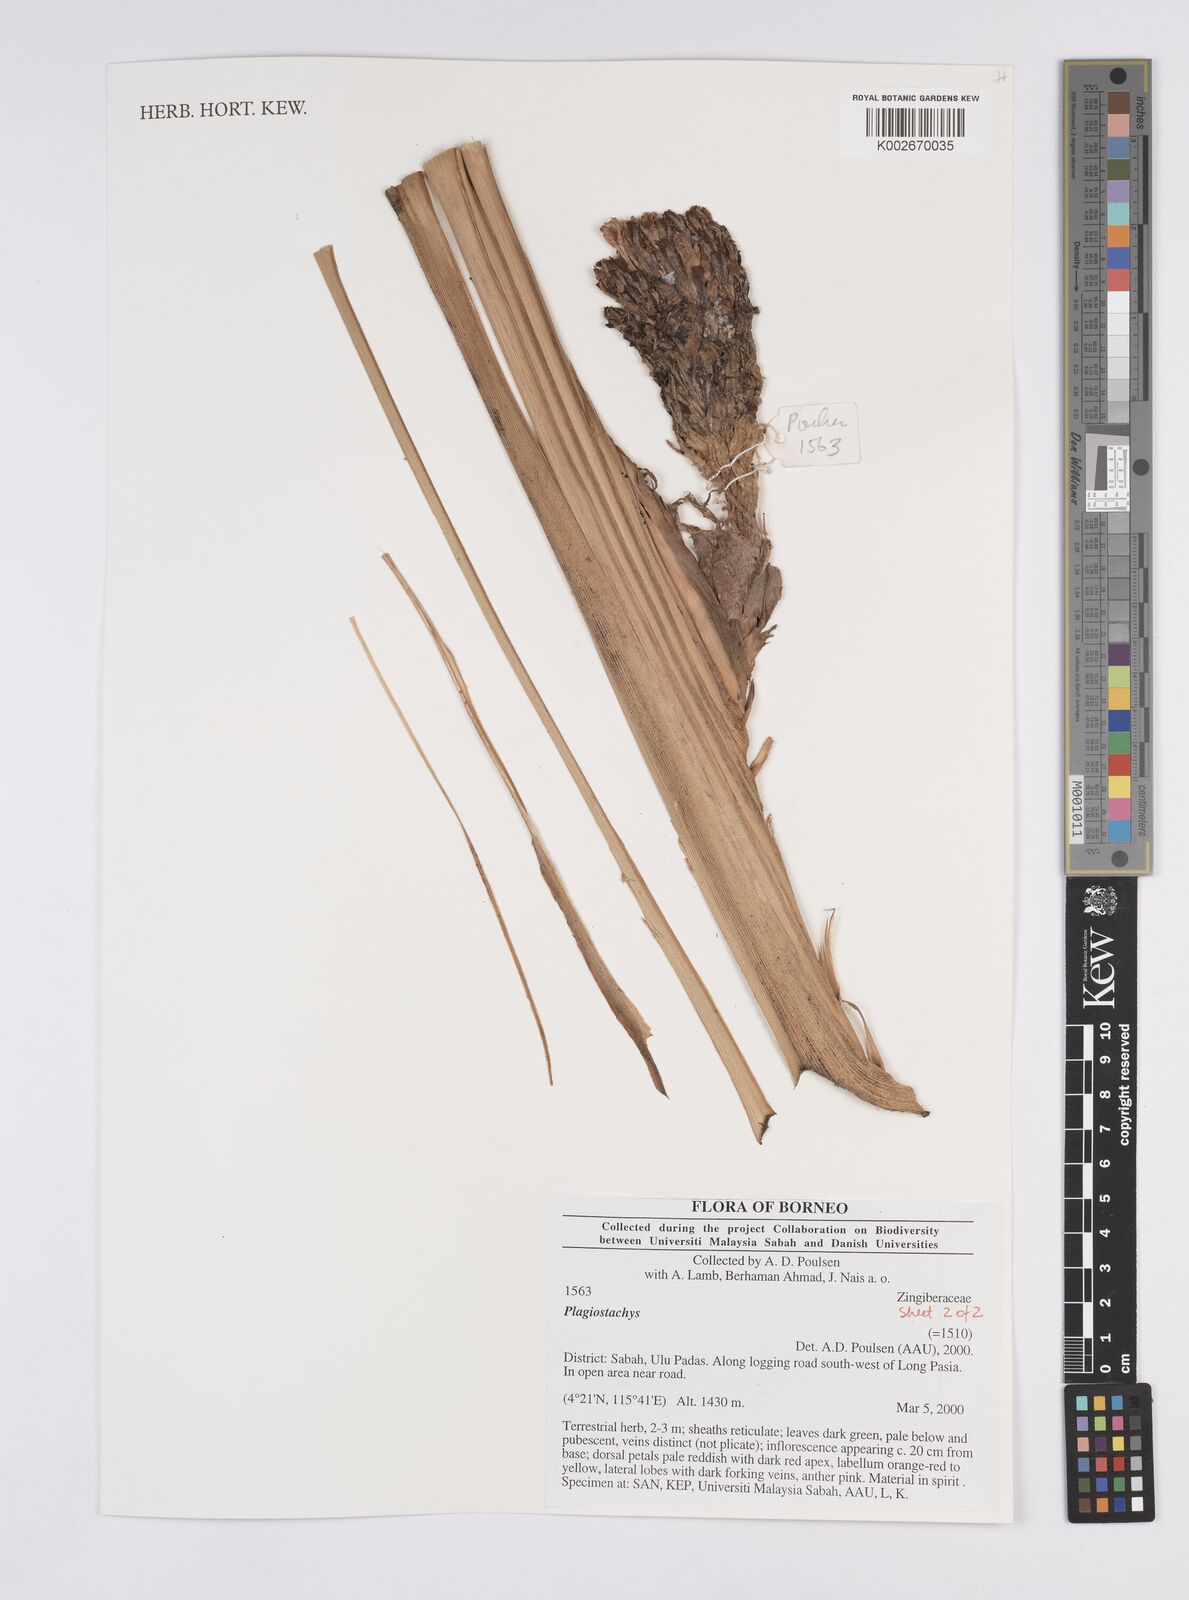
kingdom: Plantae
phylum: Tracheophyta
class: Liliopsida
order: Zingiberales
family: Zingiberaceae
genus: Plagiostachys
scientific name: Plagiostachys
